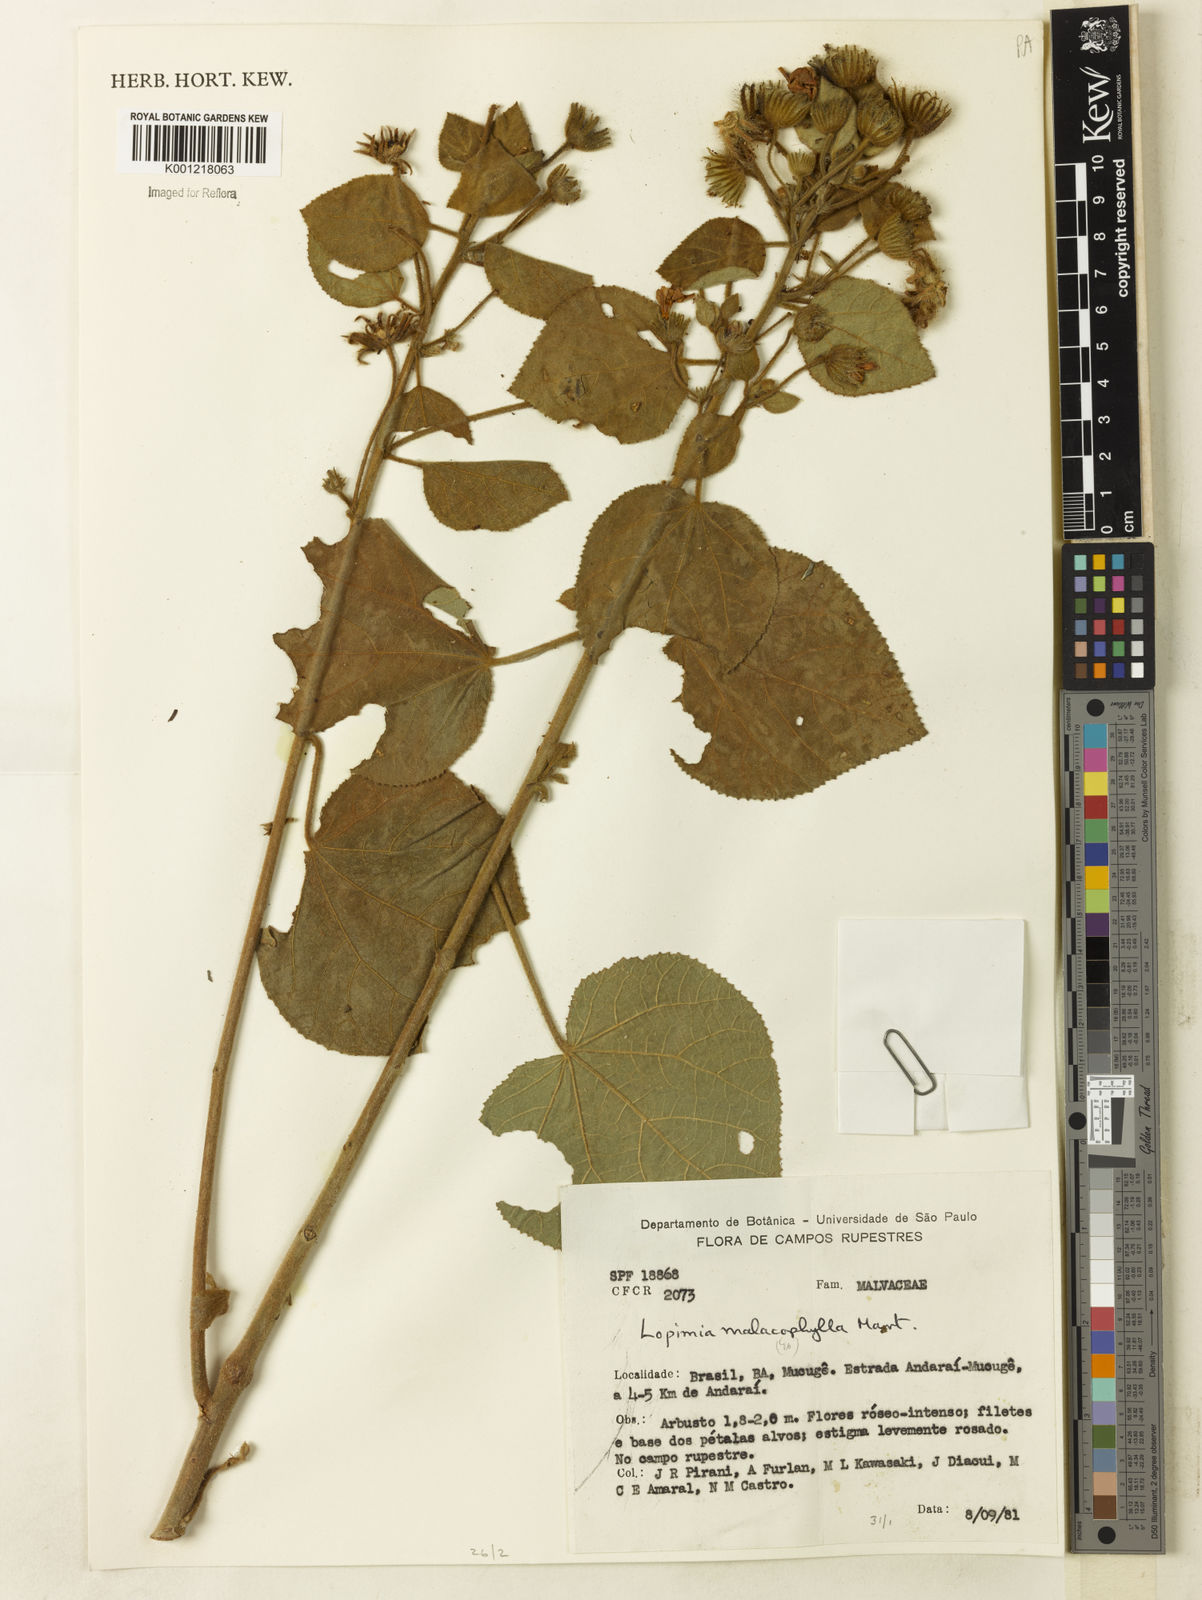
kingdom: Plantae
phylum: Tracheophyta
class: Magnoliopsida
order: Malvales
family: Malvaceae
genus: Pavonia
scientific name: Pavonia malacophylla
